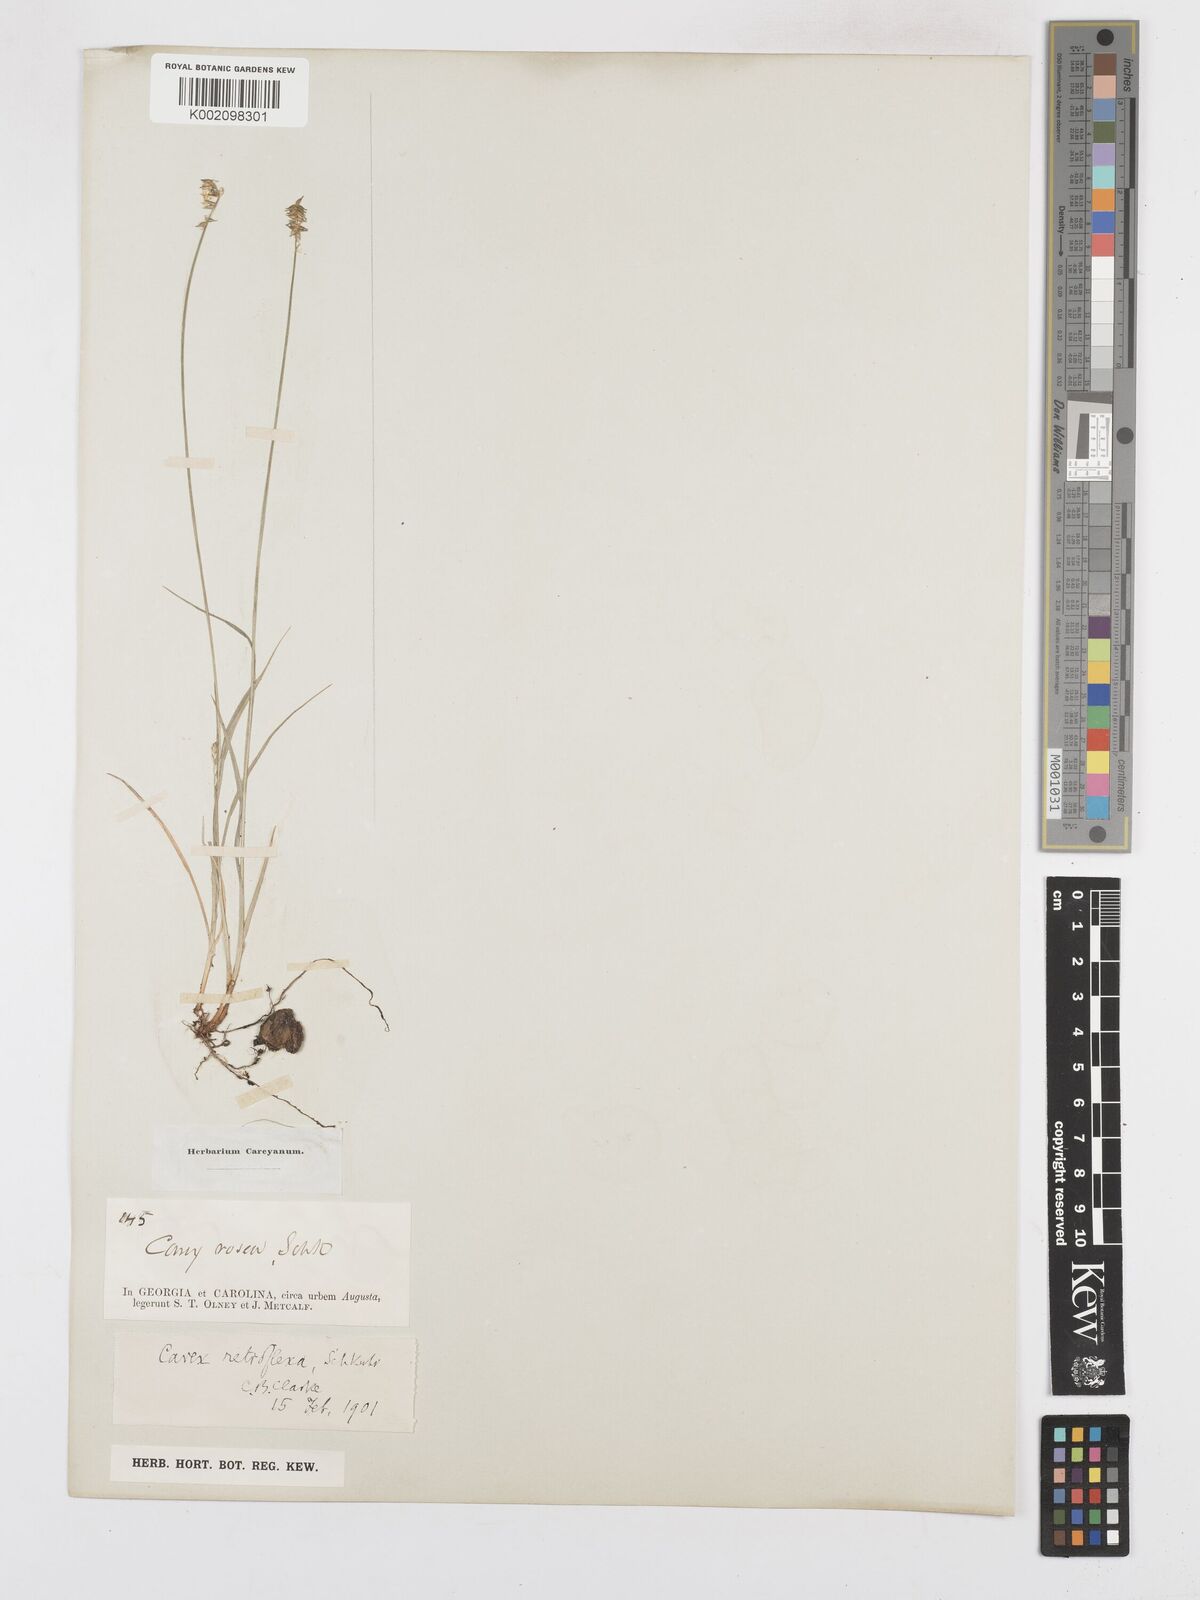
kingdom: Plantae
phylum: Tracheophyta
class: Liliopsida
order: Poales
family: Cyperaceae
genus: Carex
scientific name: Carex retroflexa
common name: Reflexed sedge
